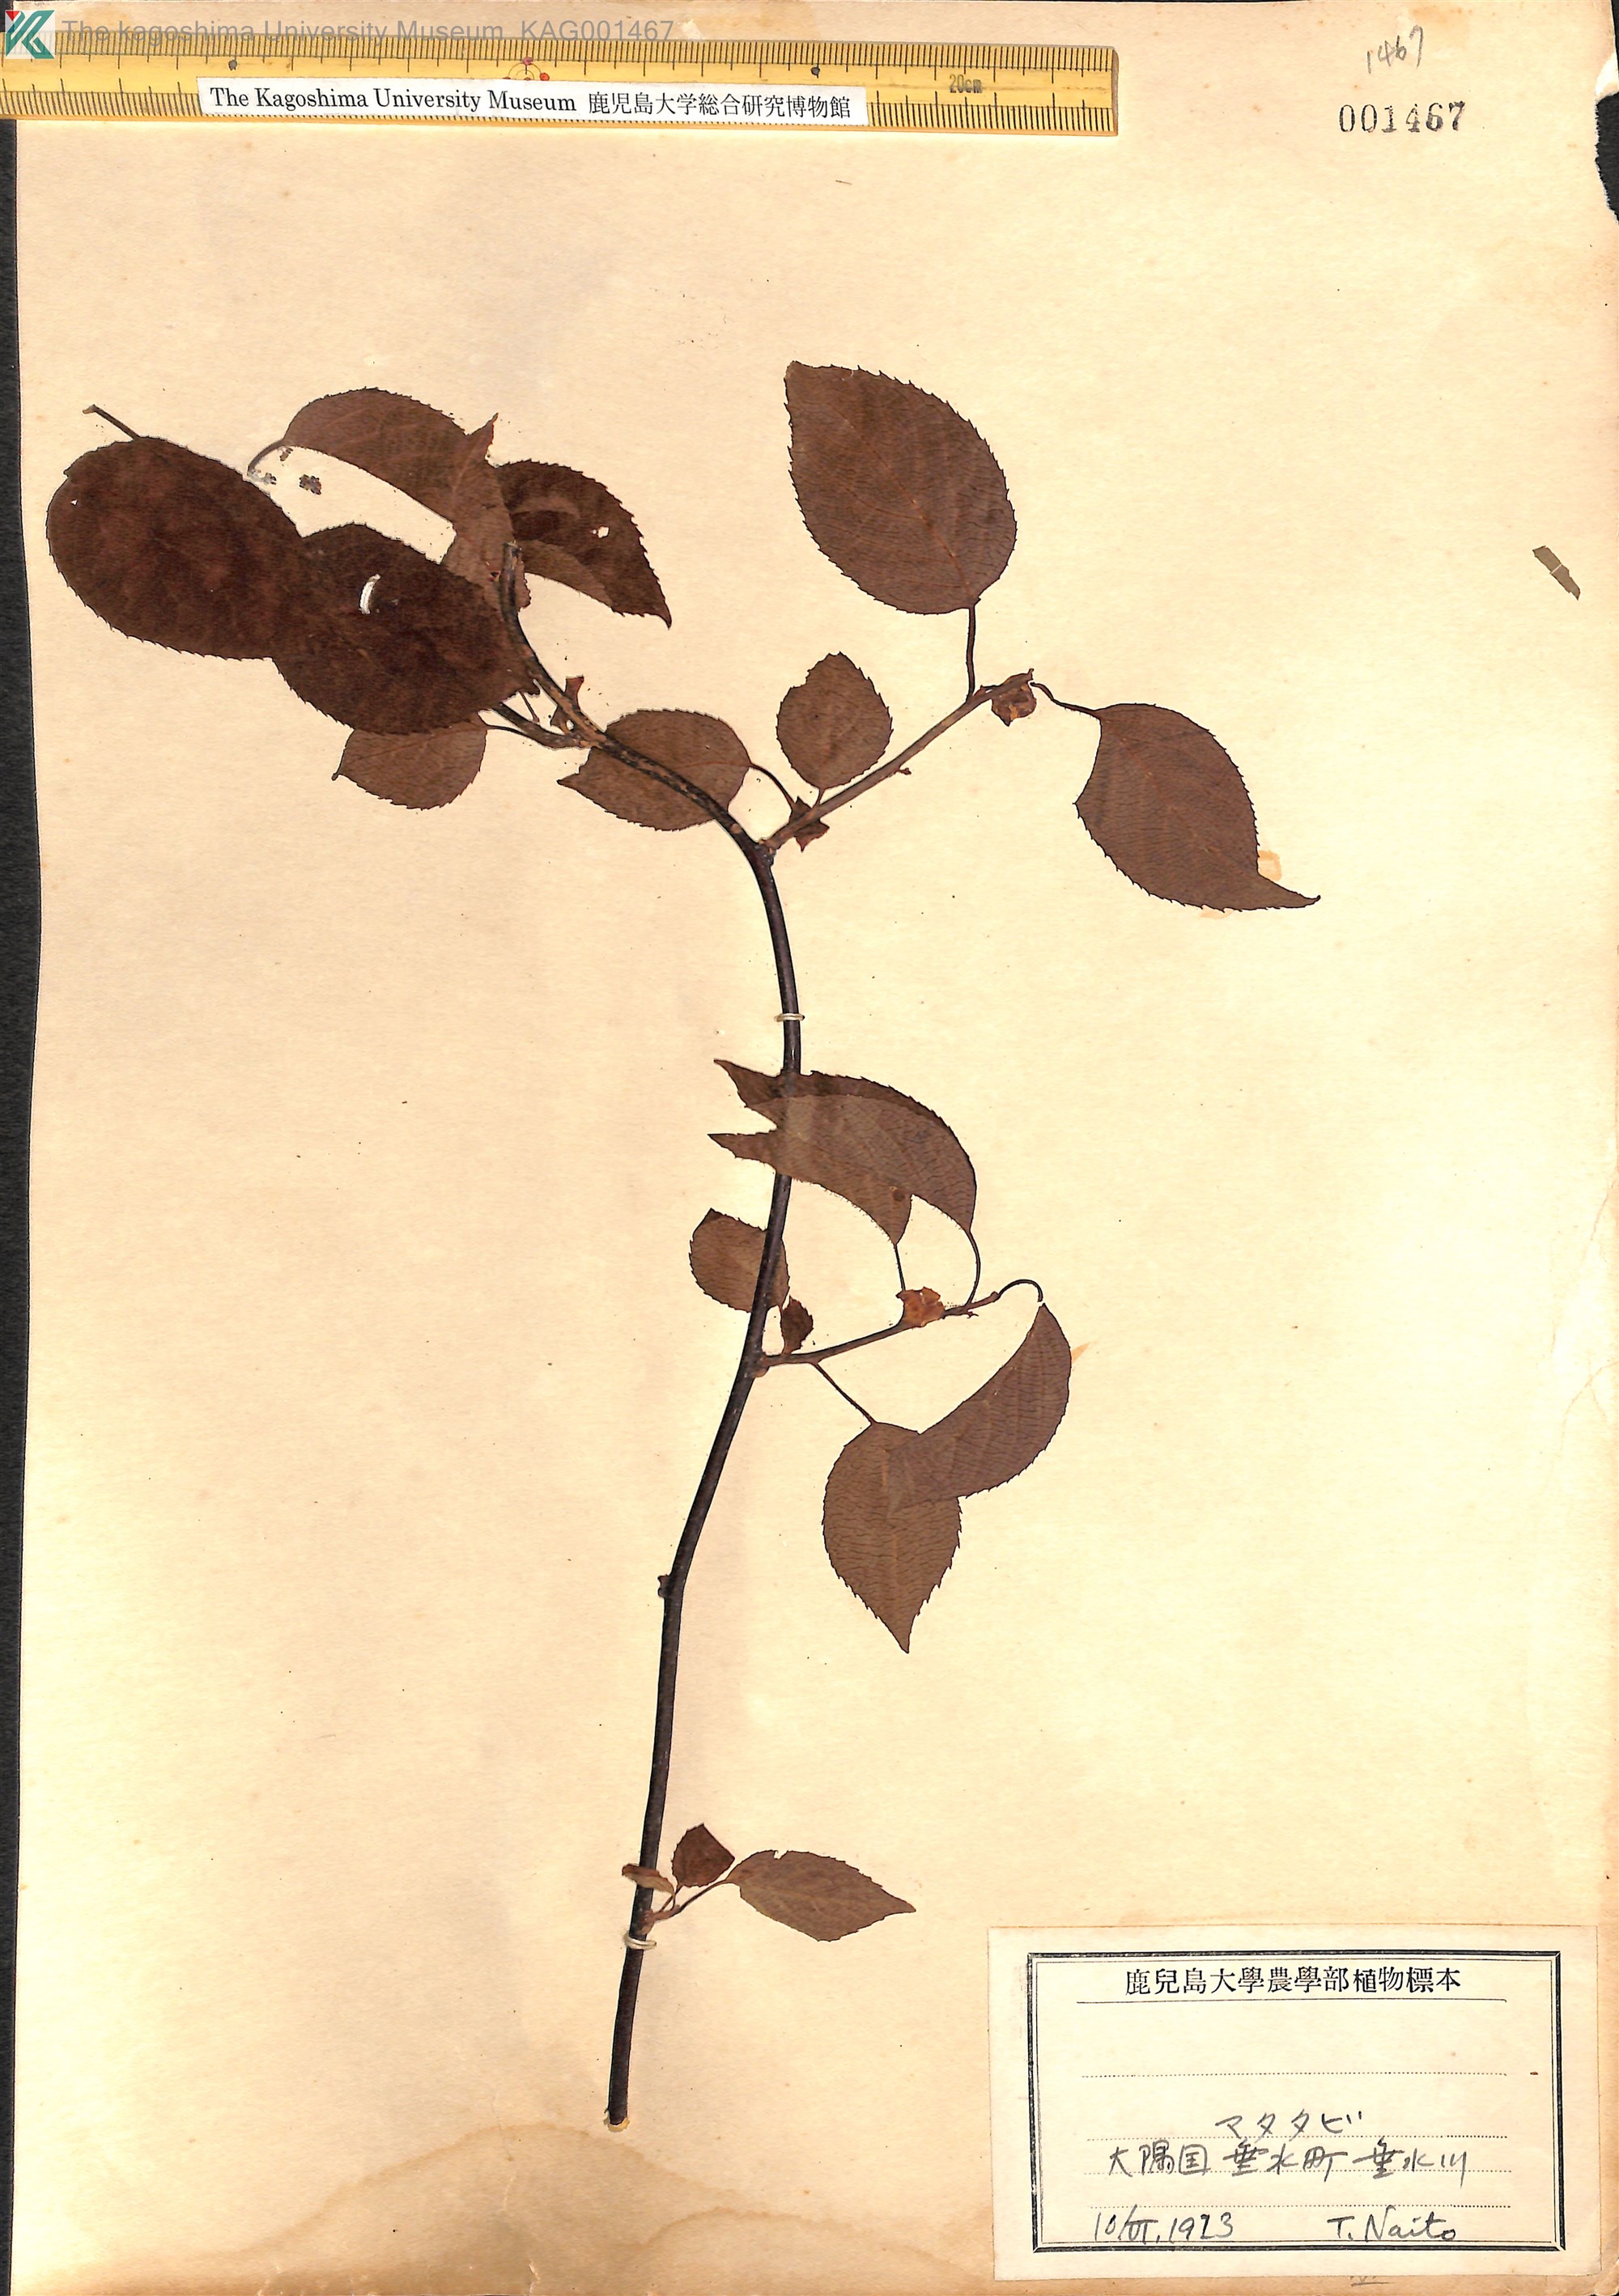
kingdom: Plantae
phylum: Tracheophyta
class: Magnoliopsida
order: Ericales
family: Actinidiaceae
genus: Actinidia
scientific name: Actinidia polygama
